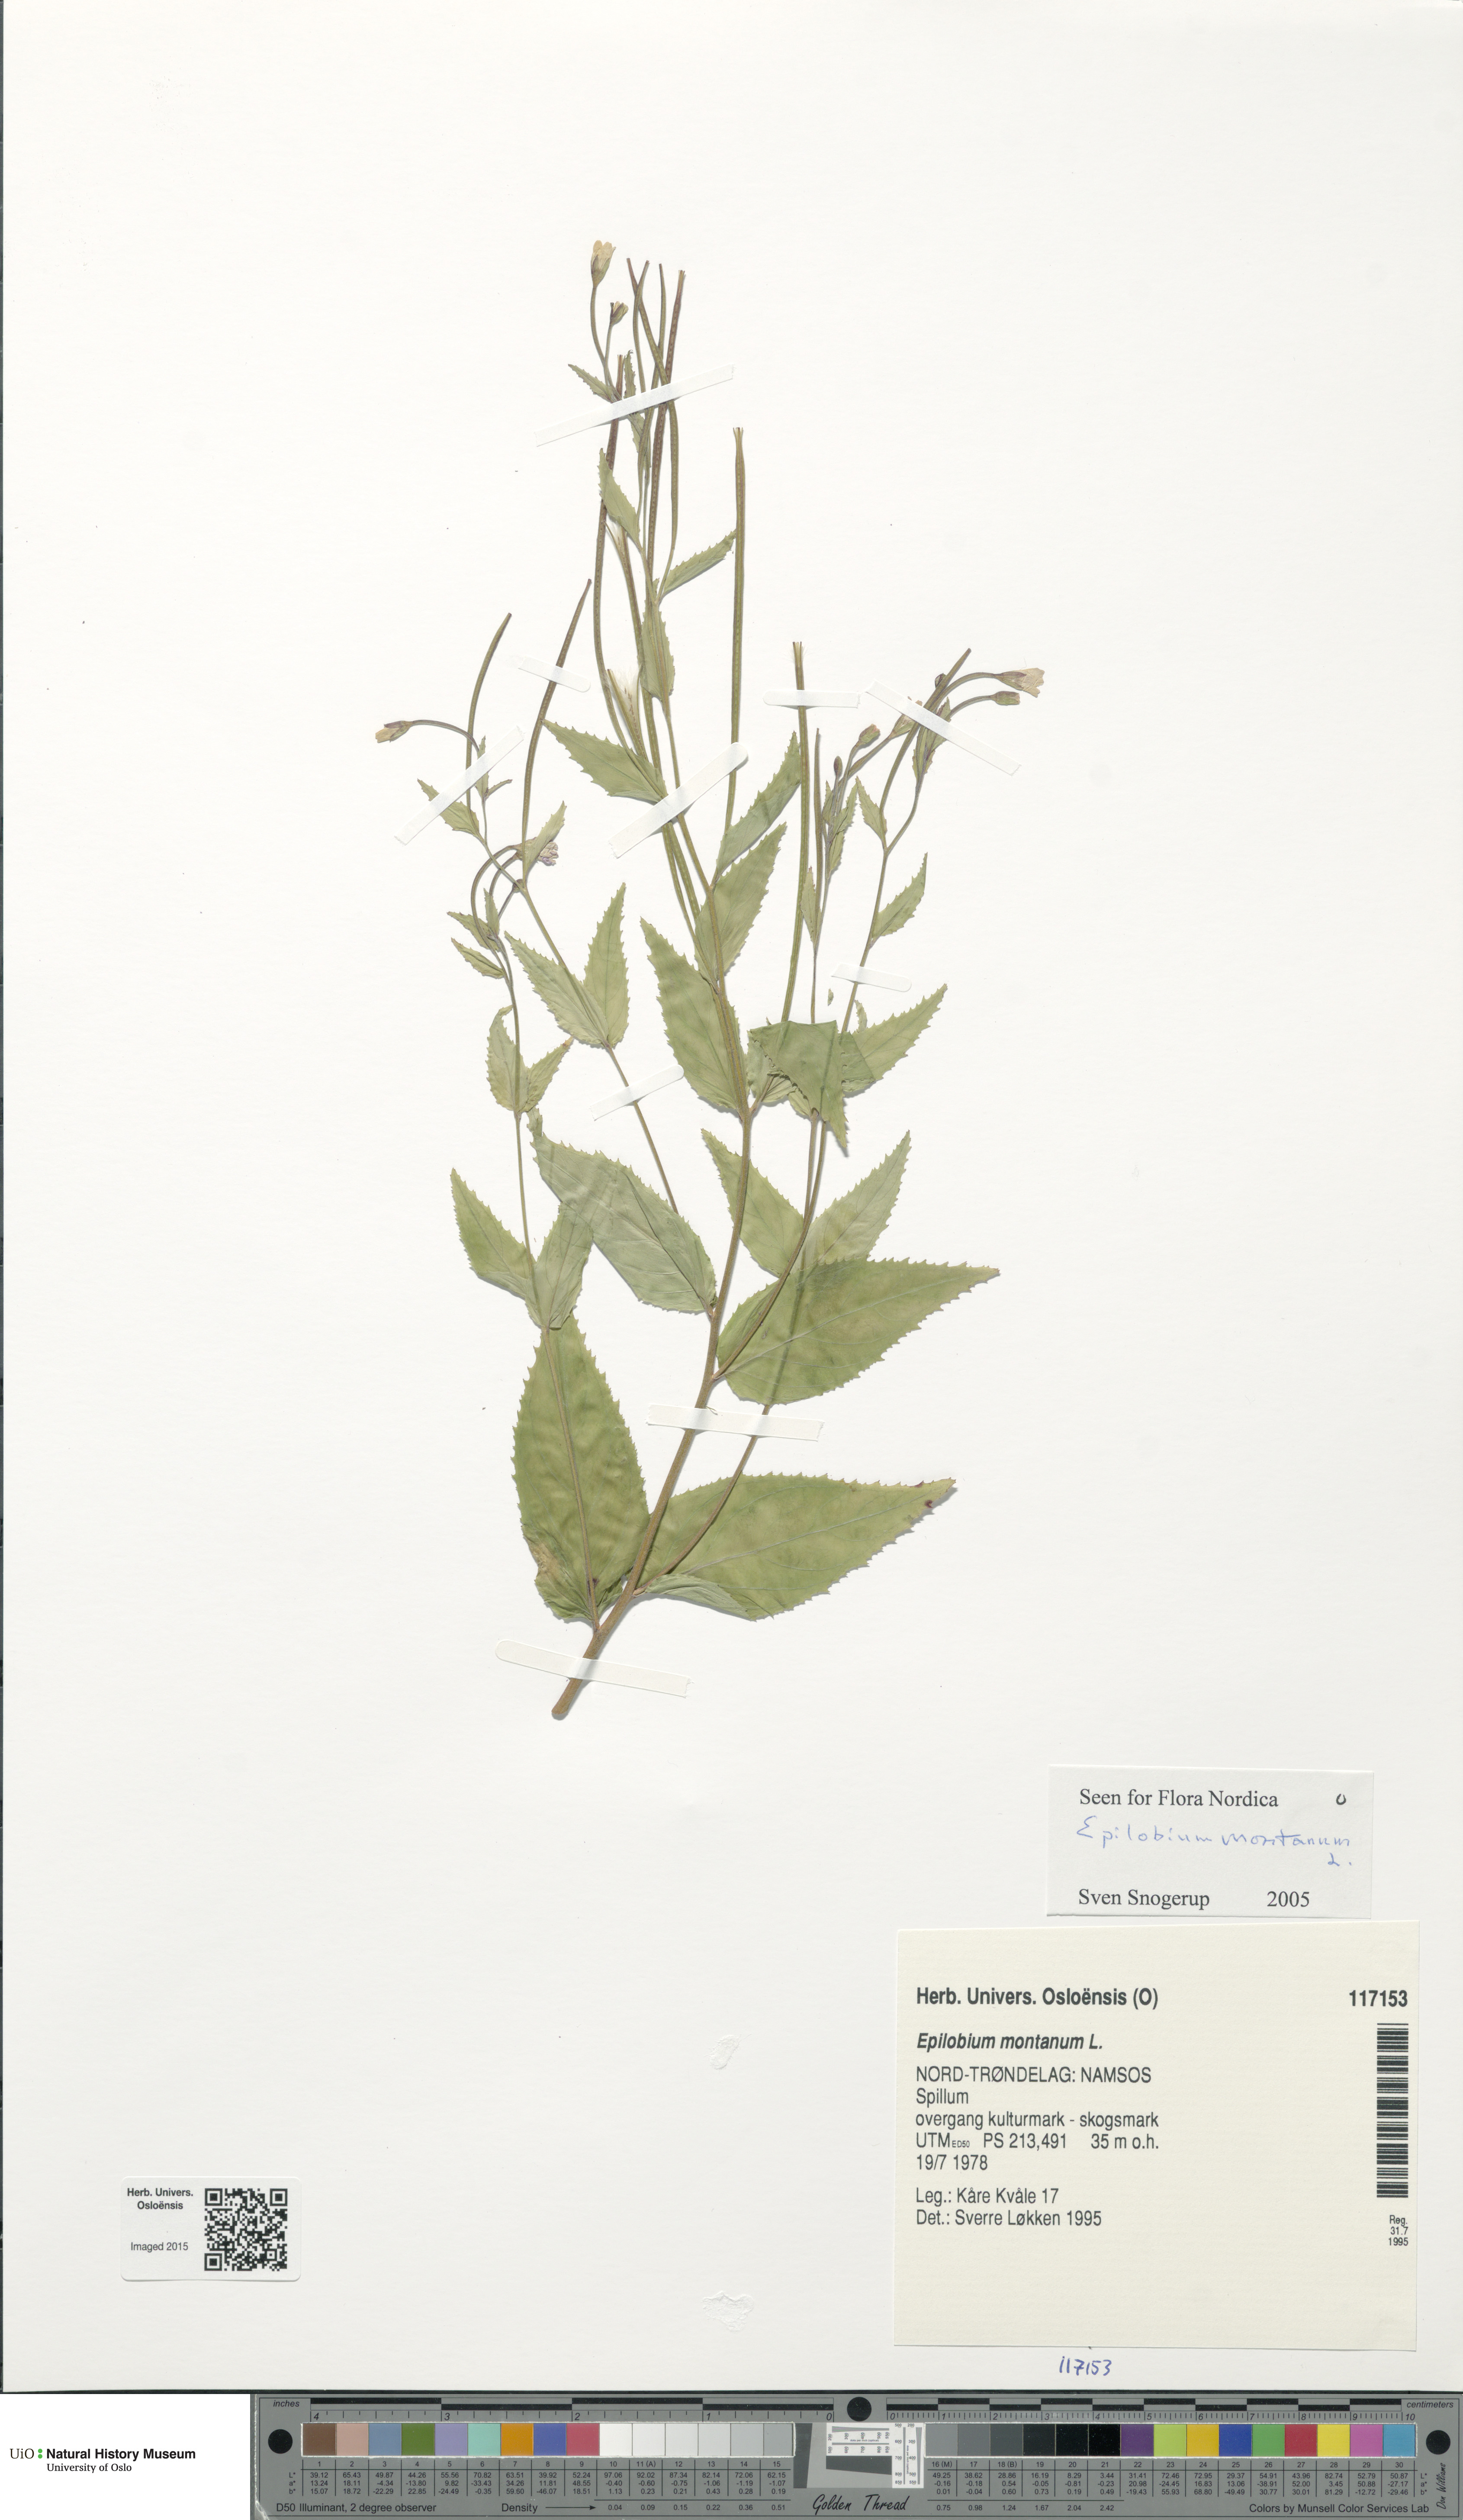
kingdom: Plantae
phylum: Tracheophyta
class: Magnoliopsida
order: Myrtales
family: Onagraceae
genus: Epilobium
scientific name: Epilobium montanum
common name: Broad-leaved willowherb
